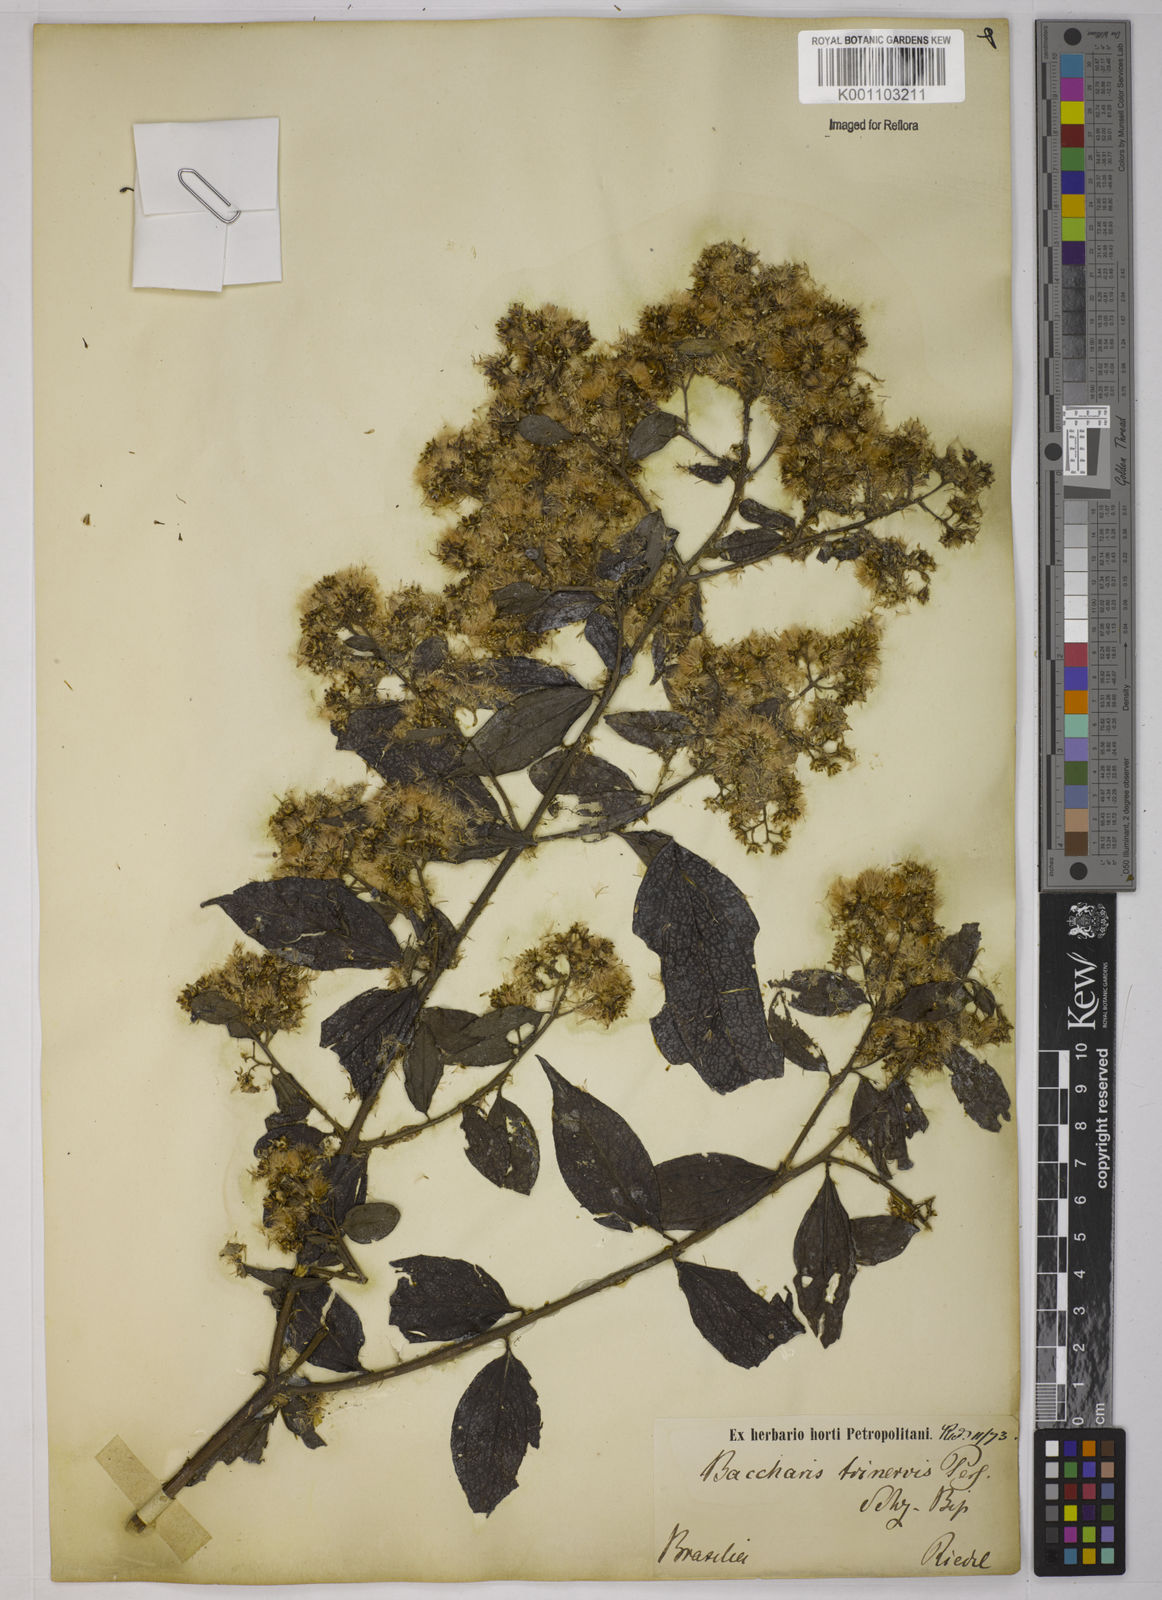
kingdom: Plantae
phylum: Tracheophyta
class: Magnoliopsida
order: Asterales
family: Asteraceae
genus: Baccharis
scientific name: Baccharis trinervis
